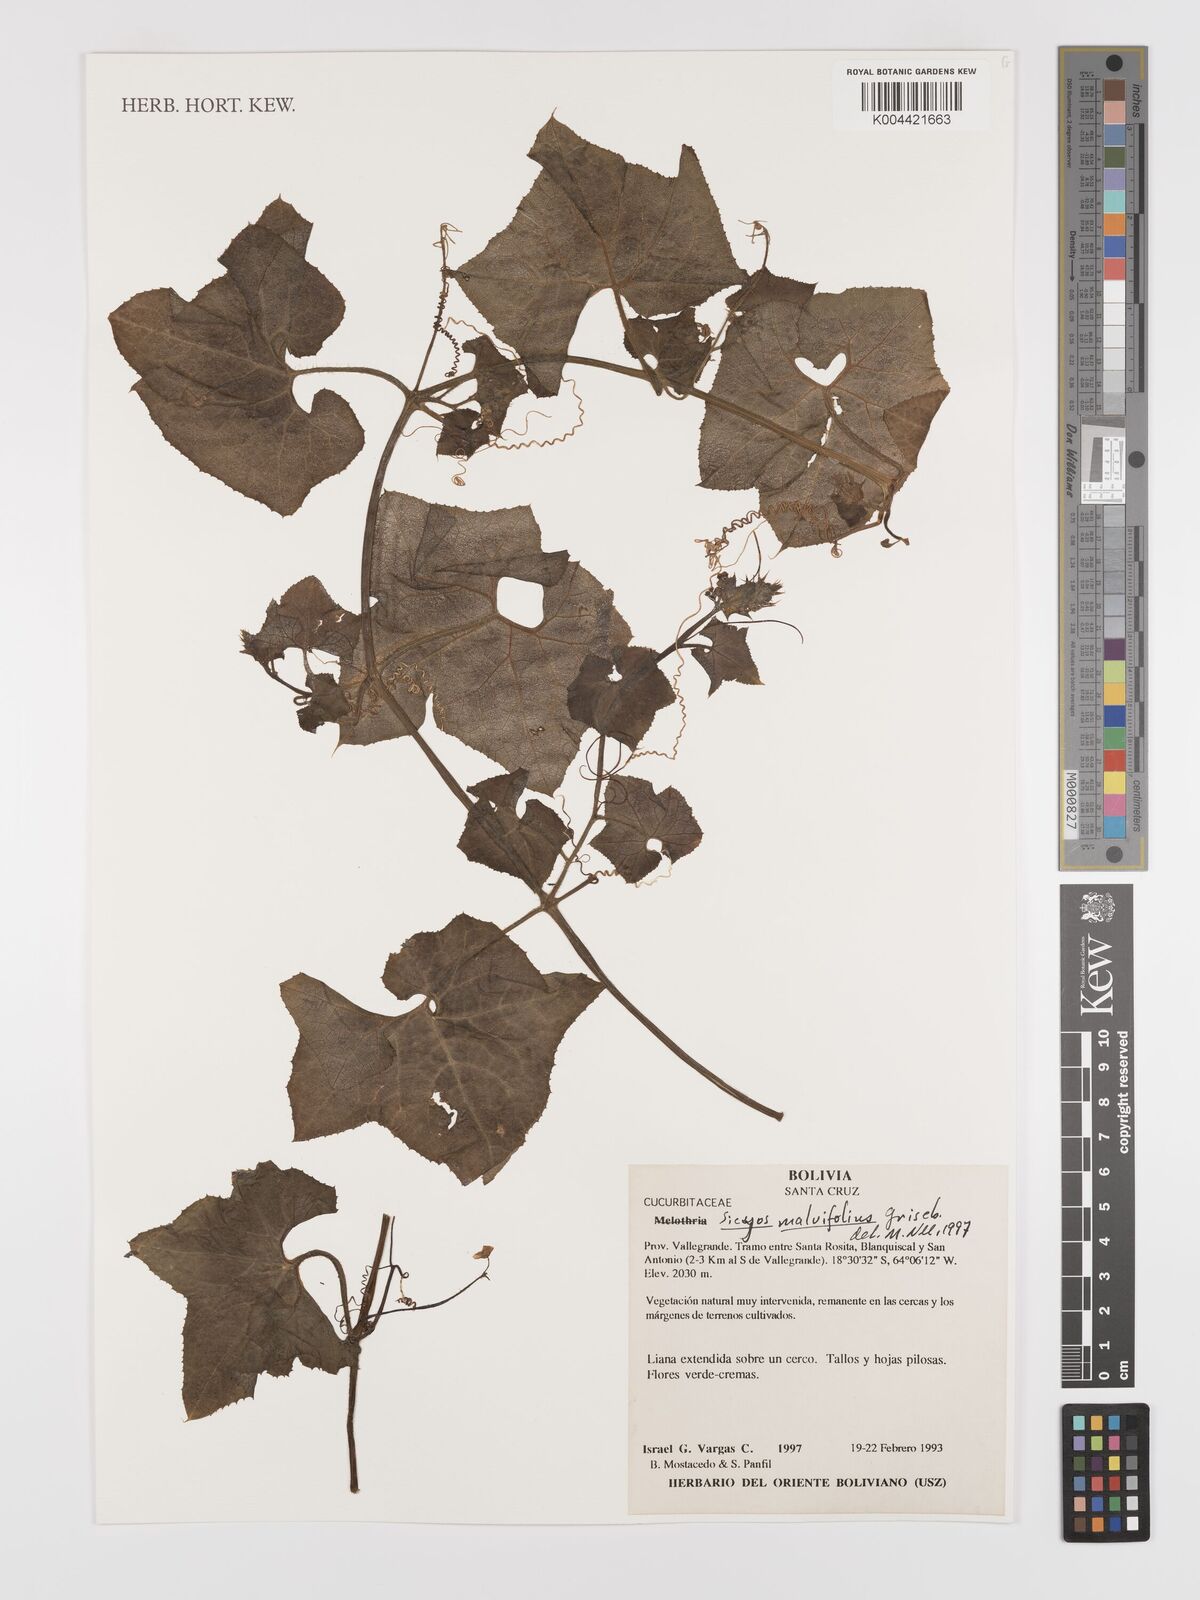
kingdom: Plantae
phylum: Tracheophyta
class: Magnoliopsida
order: Cucurbitales
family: Cucurbitaceae
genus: Sicyos
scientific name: Sicyos malvifolius
